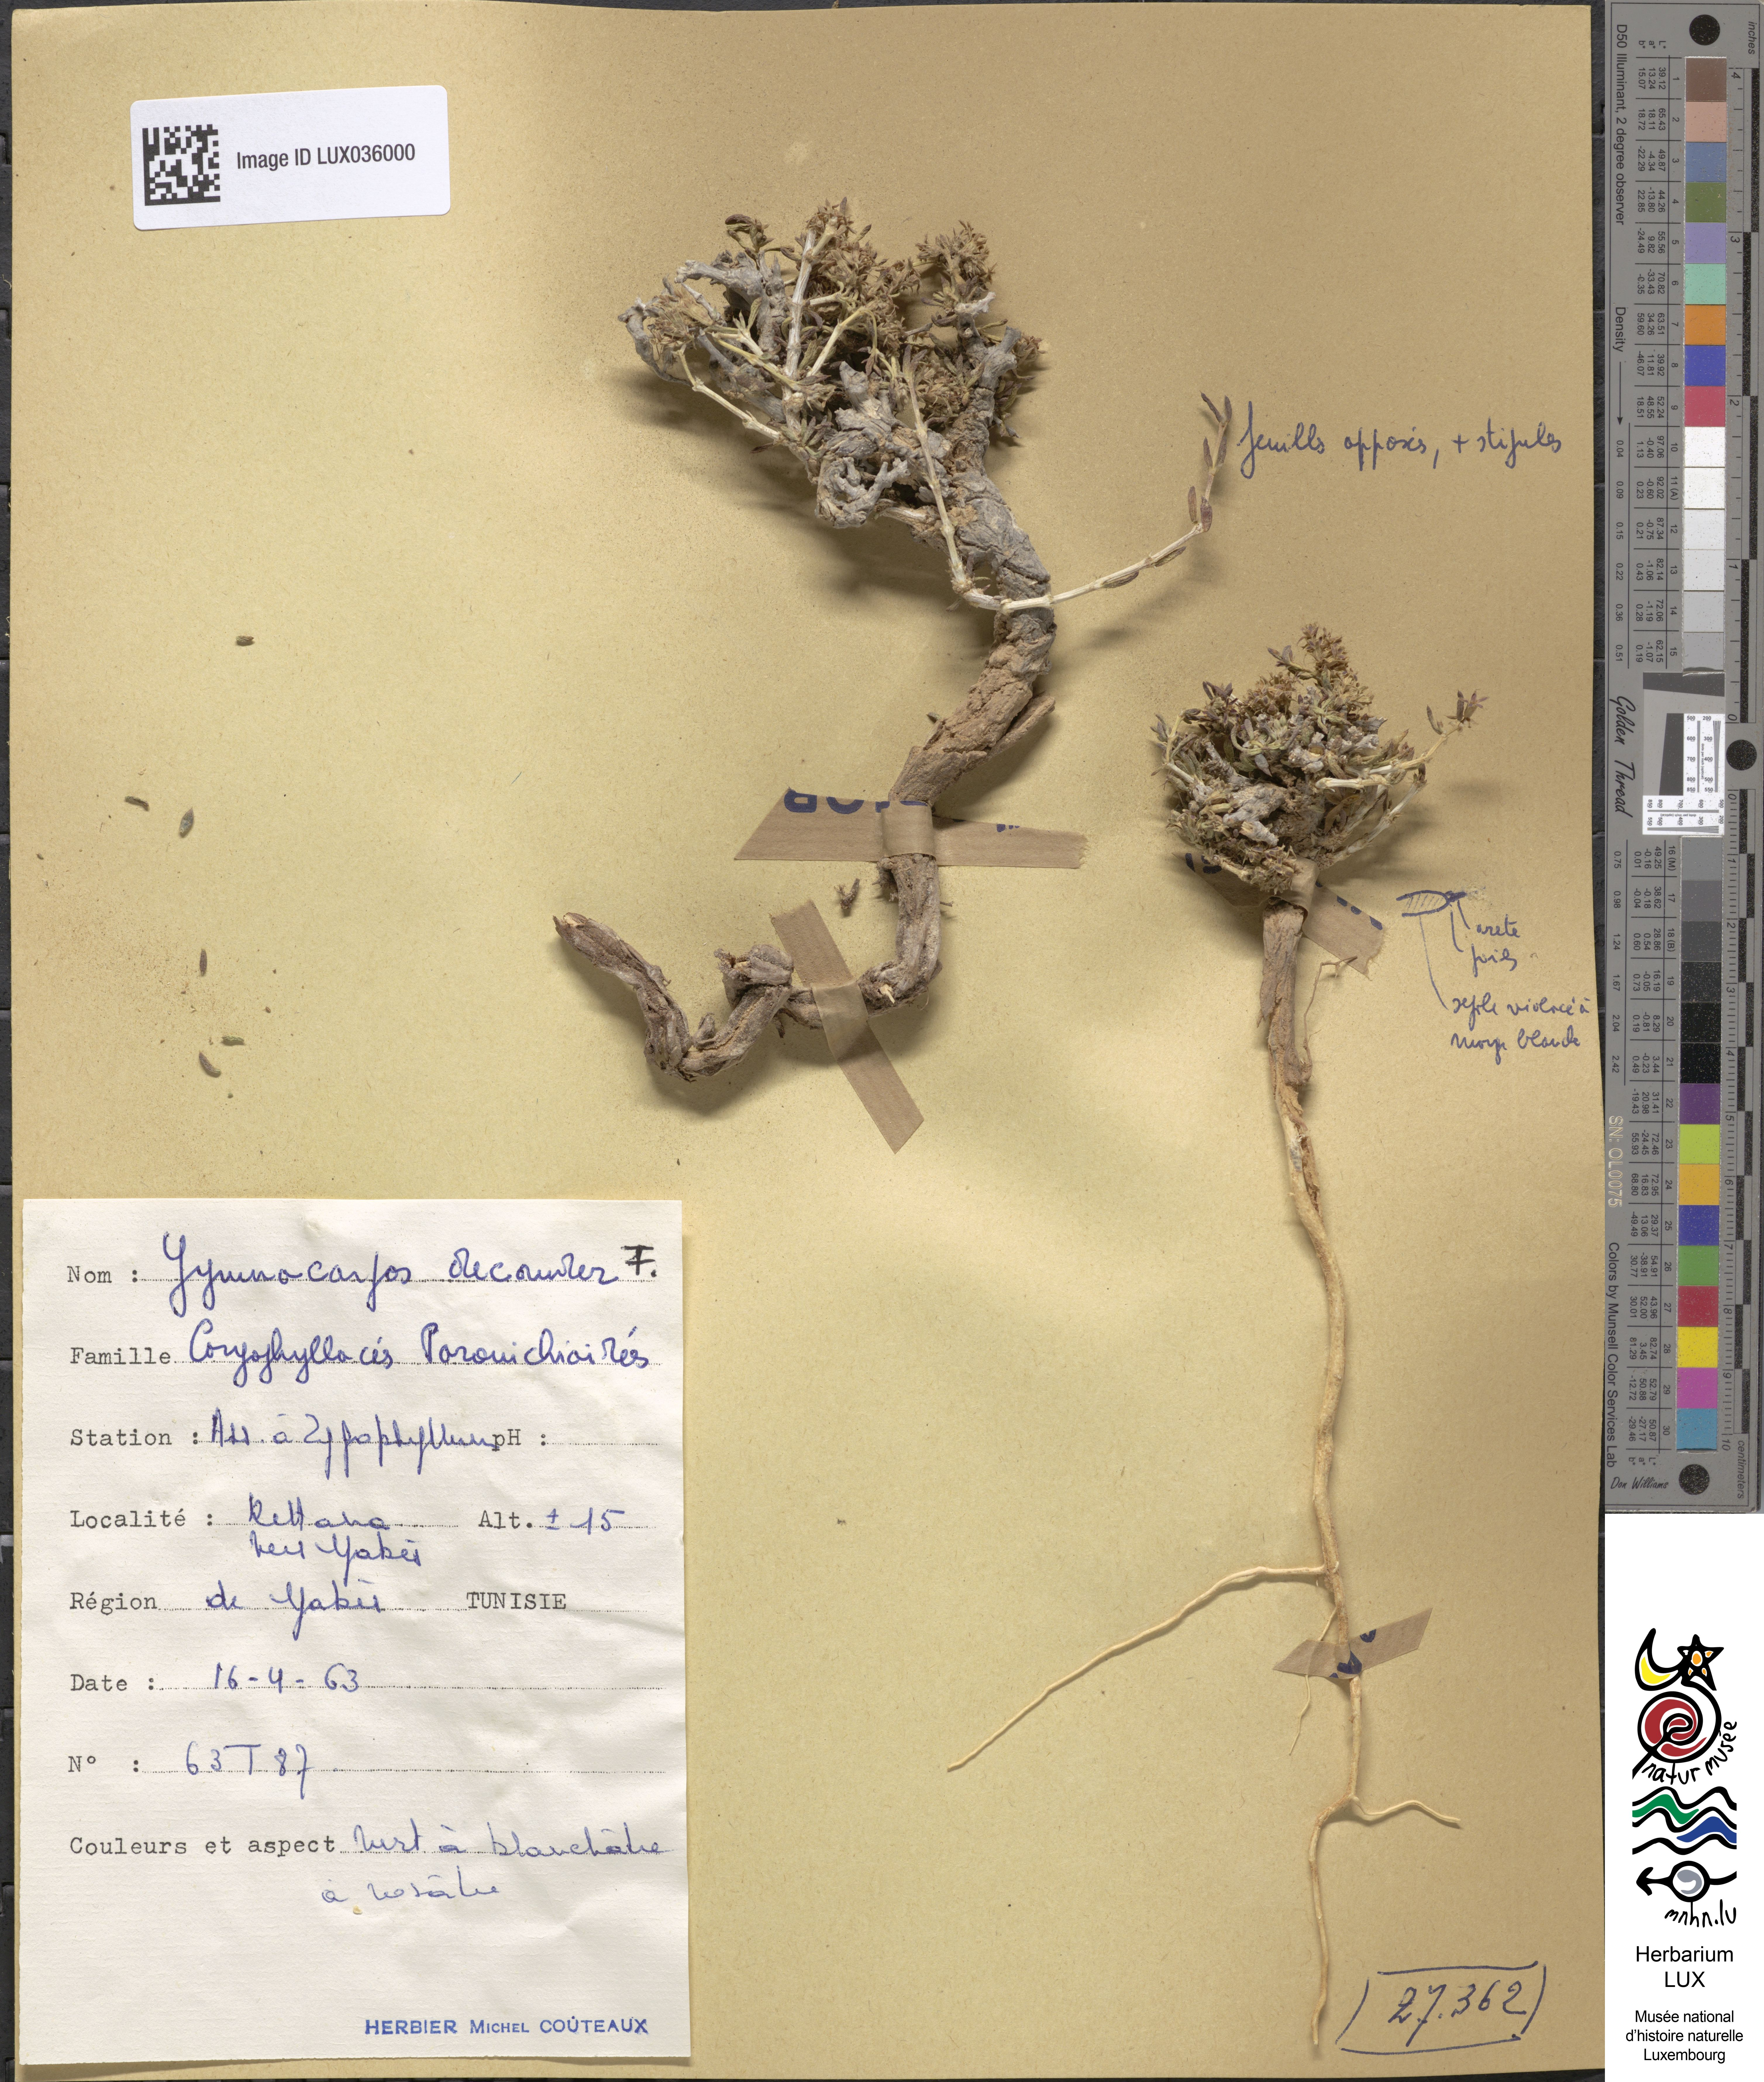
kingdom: Plantae
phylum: Tracheophyta
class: Magnoliopsida
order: Caryophyllales
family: Caryophyllaceae
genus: Gymnocarpos
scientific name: Gymnocarpos decander
